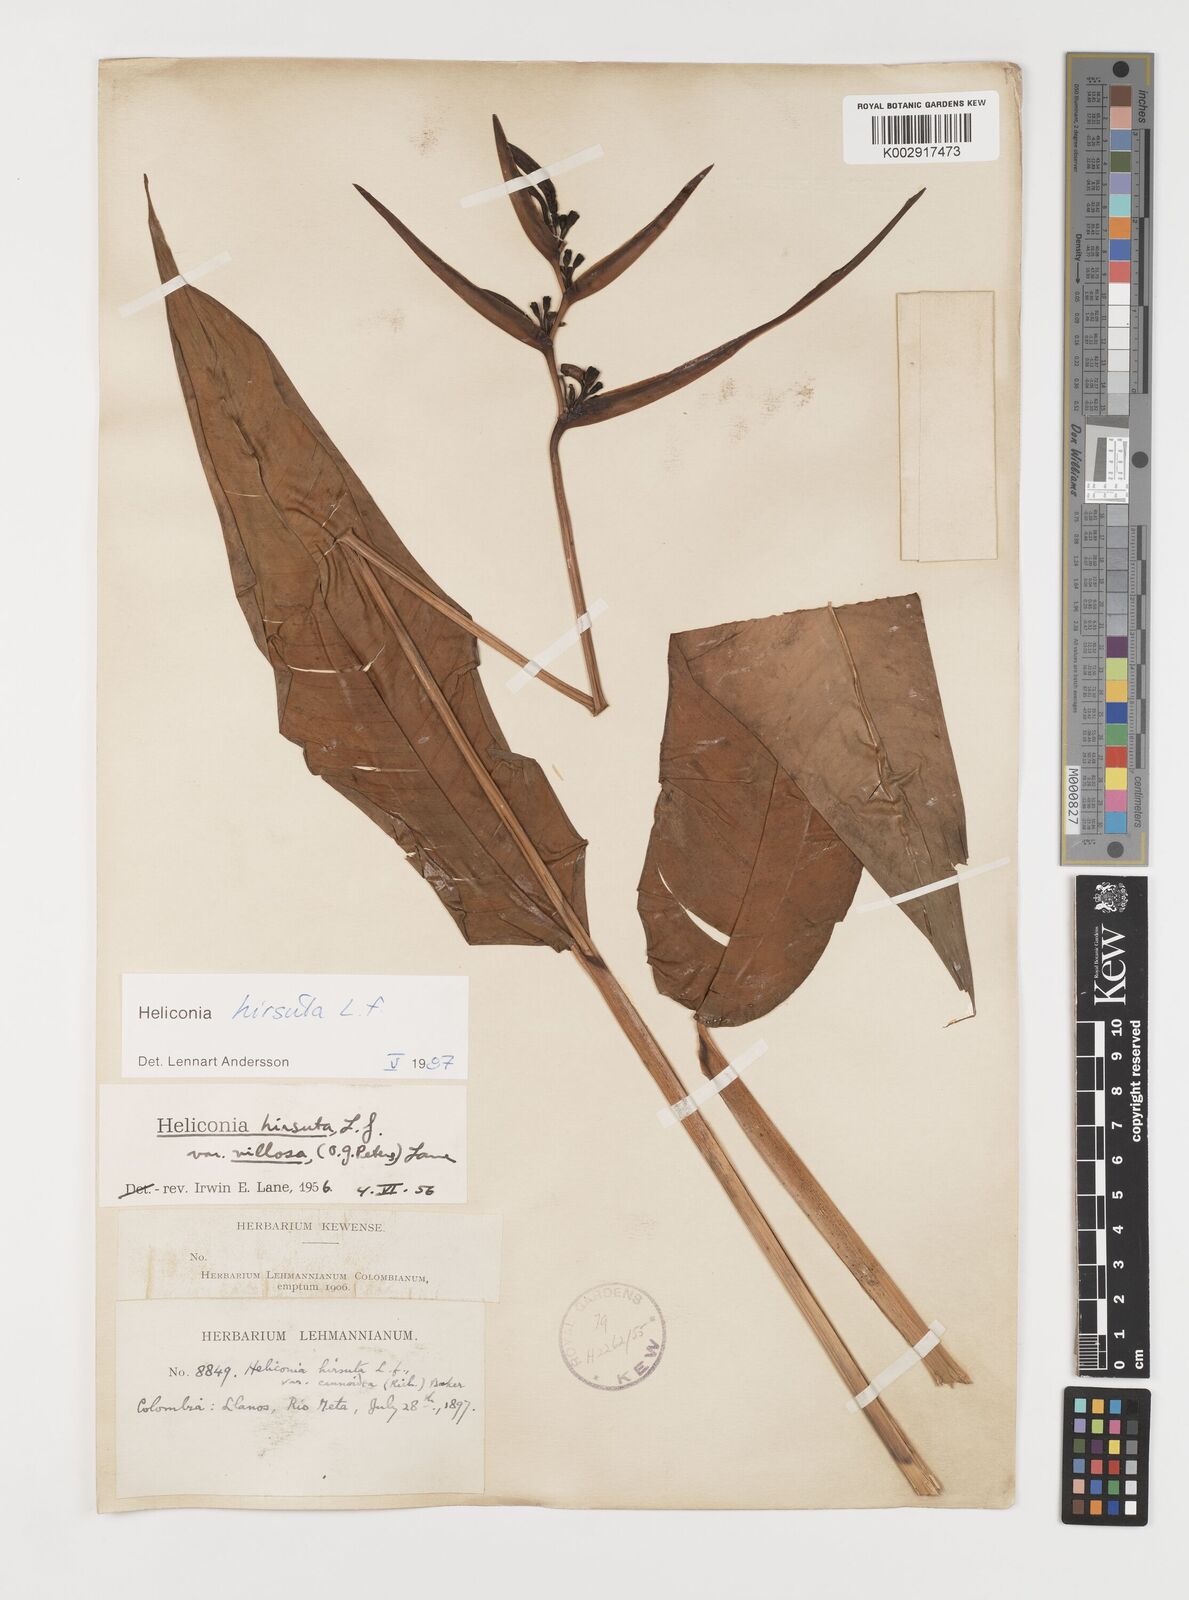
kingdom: Plantae
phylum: Tracheophyta
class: Liliopsida
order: Zingiberales
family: Heliconiaceae
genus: Heliconia
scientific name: Heliconia hirsuta
